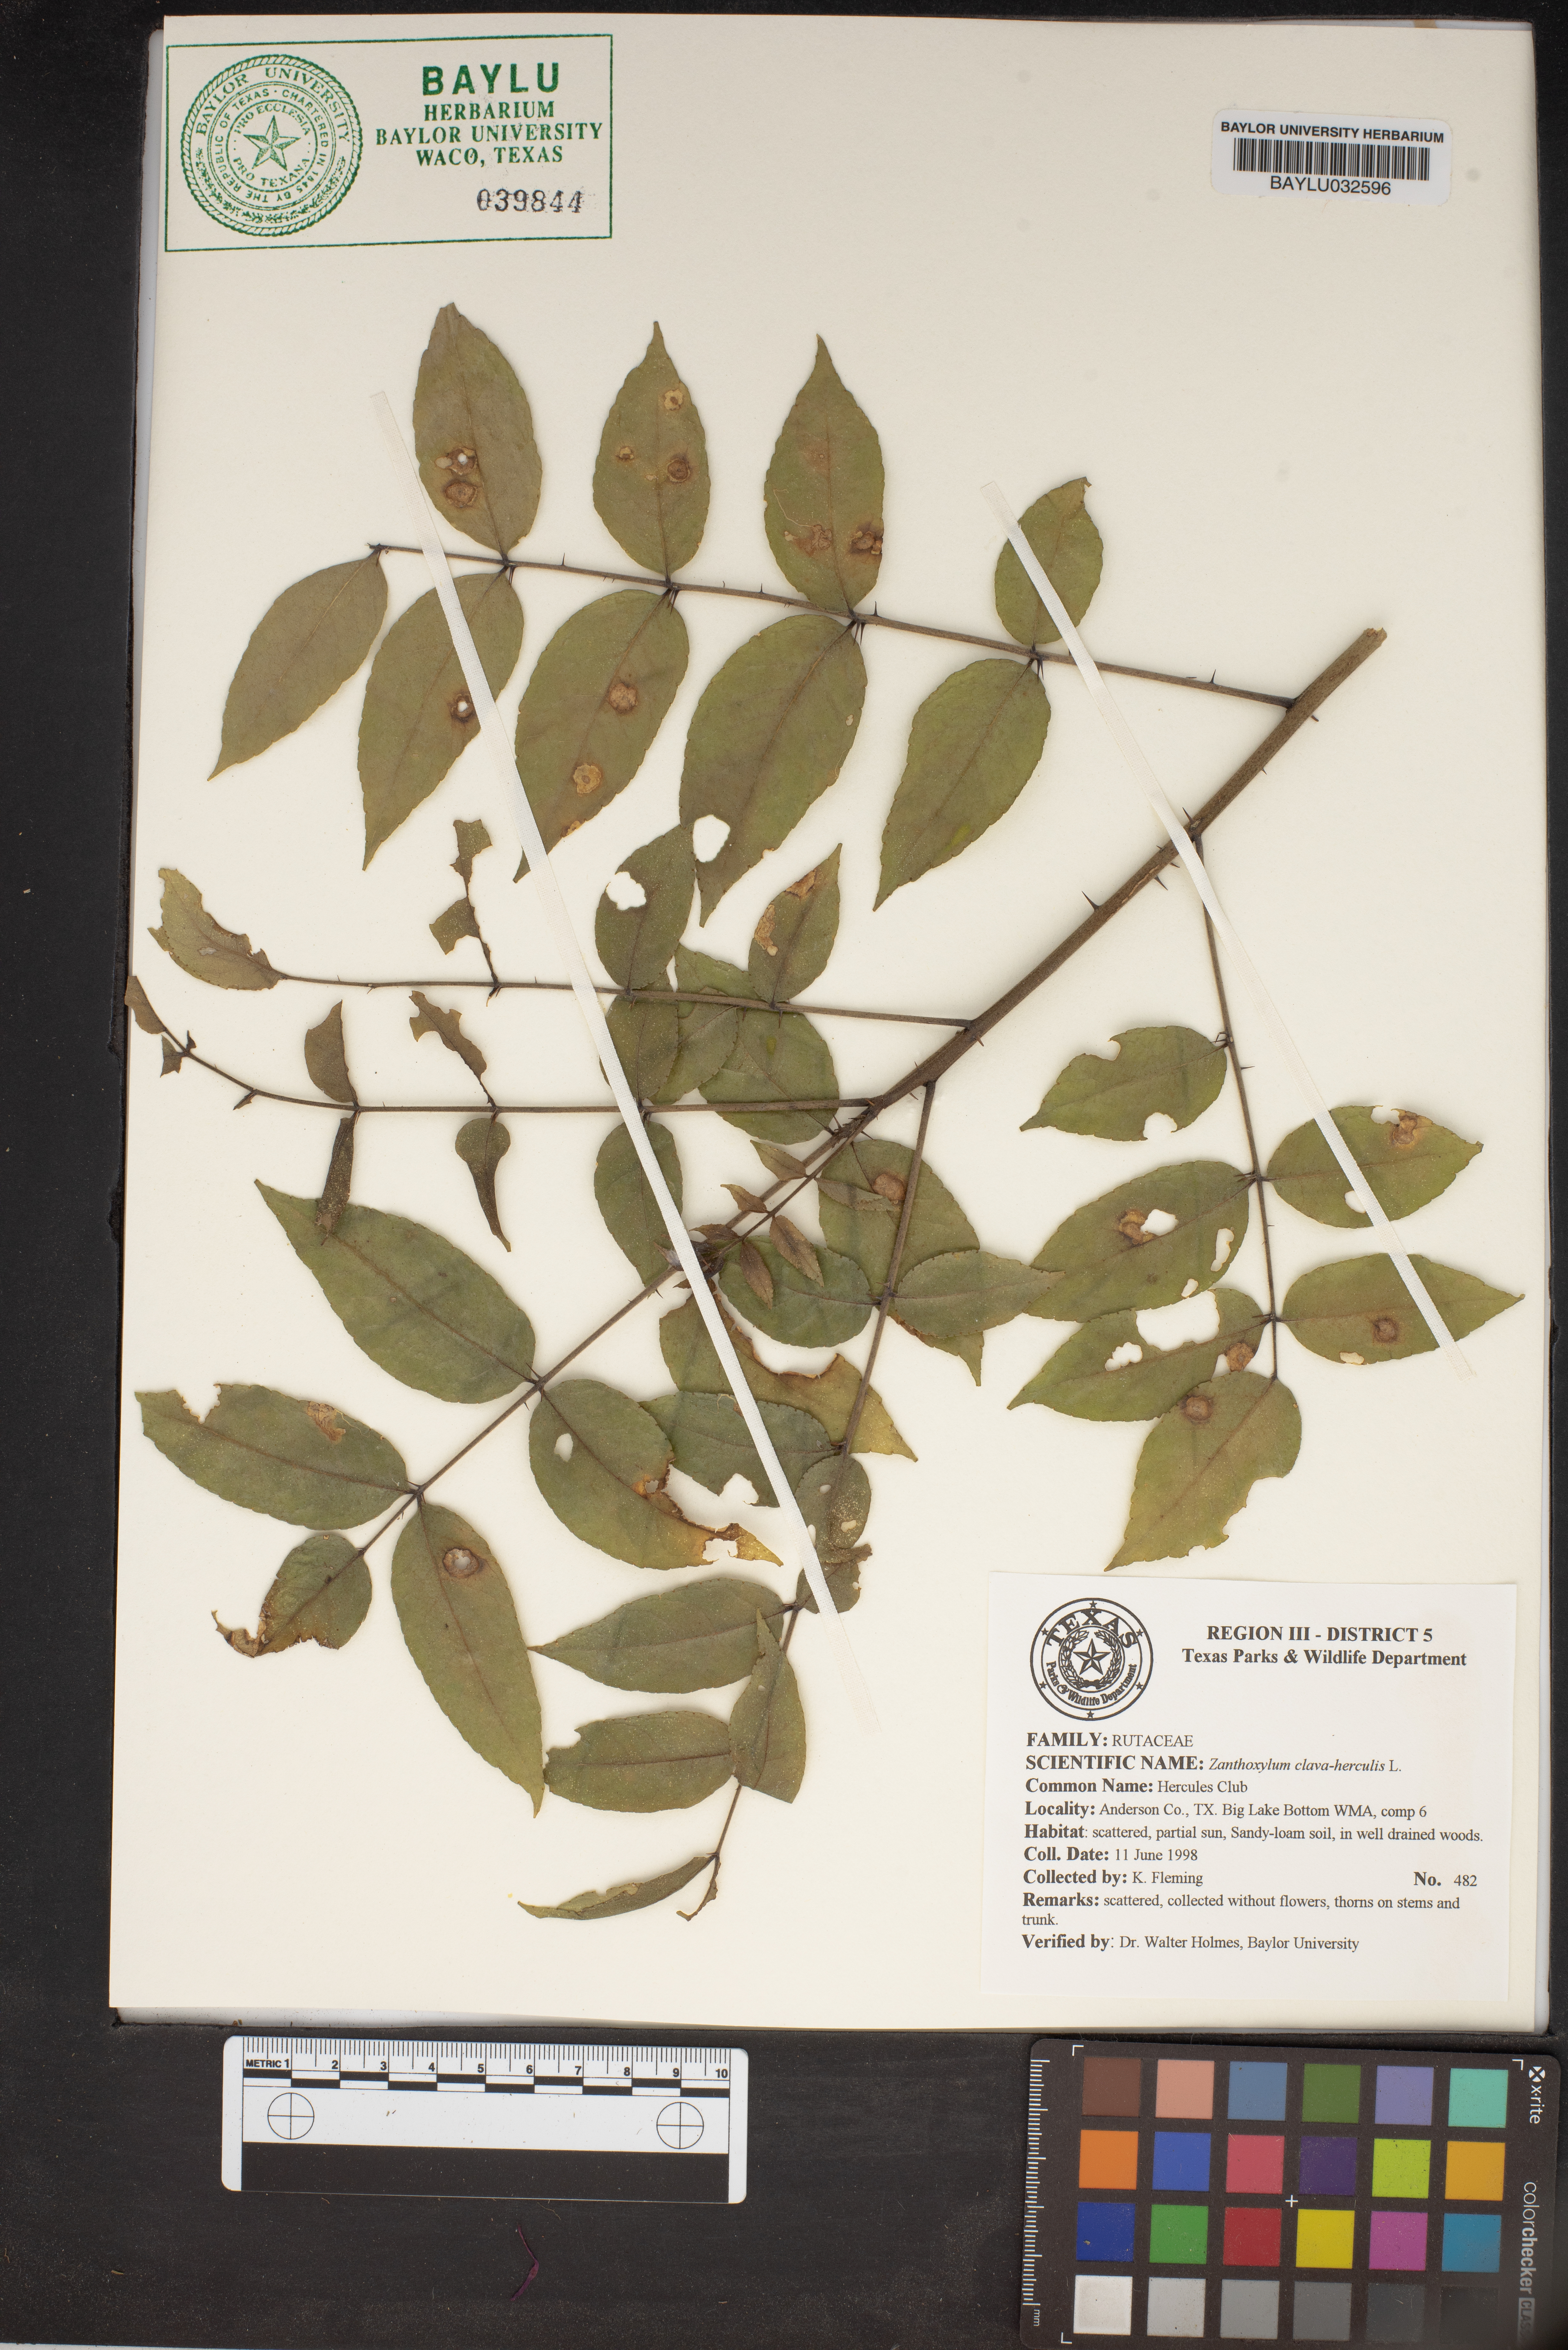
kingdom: Plantae
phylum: Tracheophyta
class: Magnoliopsida
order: Sapindales
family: Rutaceae
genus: Zanthoxylum
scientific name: Zanthoxylum avicennae
